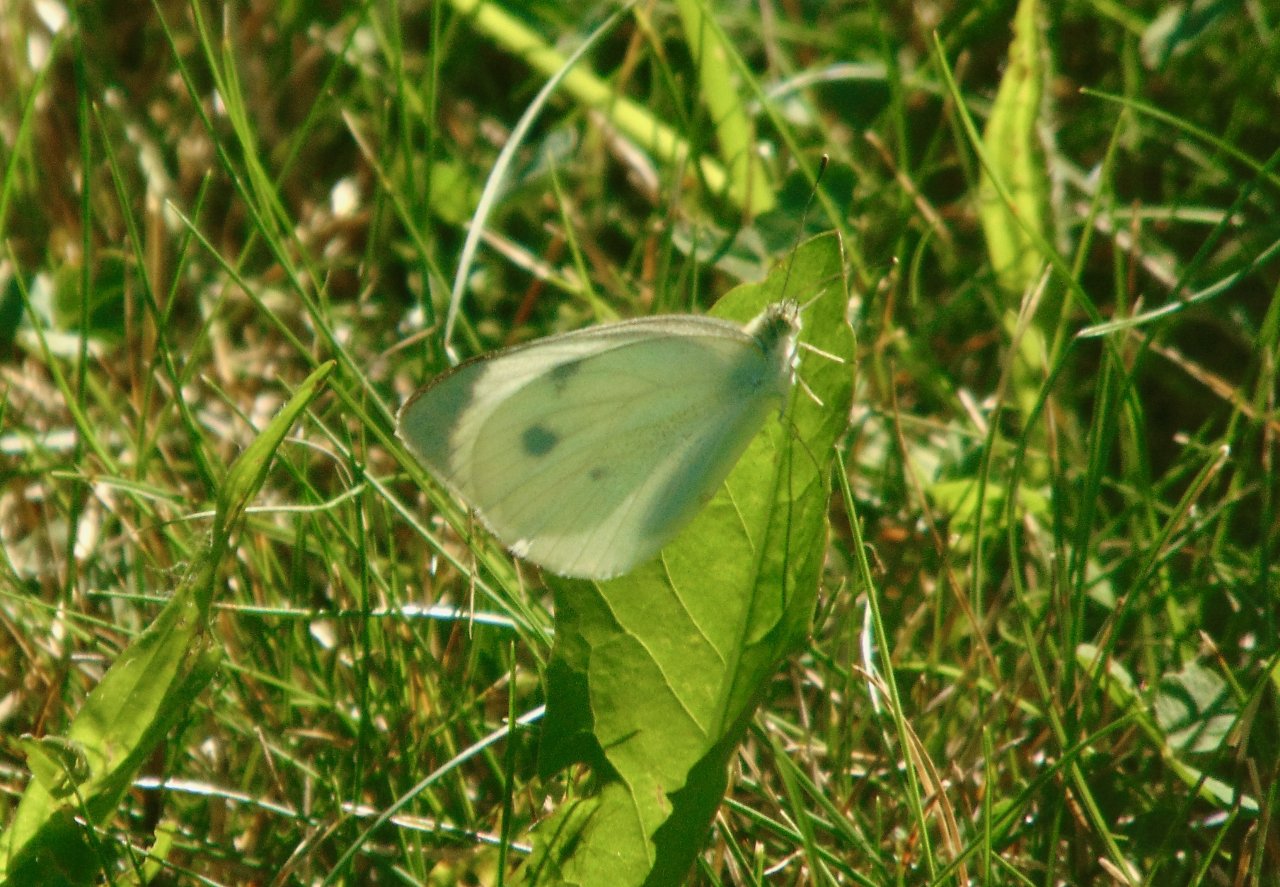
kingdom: Animalia
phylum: Arthropoda
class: Insecta
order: Lepidoptera
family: Pieridae
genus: Pieris
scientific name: Pieris rapae
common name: Cabbage White
